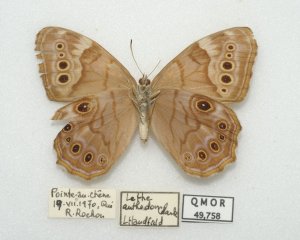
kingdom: Animalia
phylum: Arthropoda
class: Insecta
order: Lepidoptera
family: Nymphalidae
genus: Lethe
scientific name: Lethe anthedon
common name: Northern Pearly-Eye
